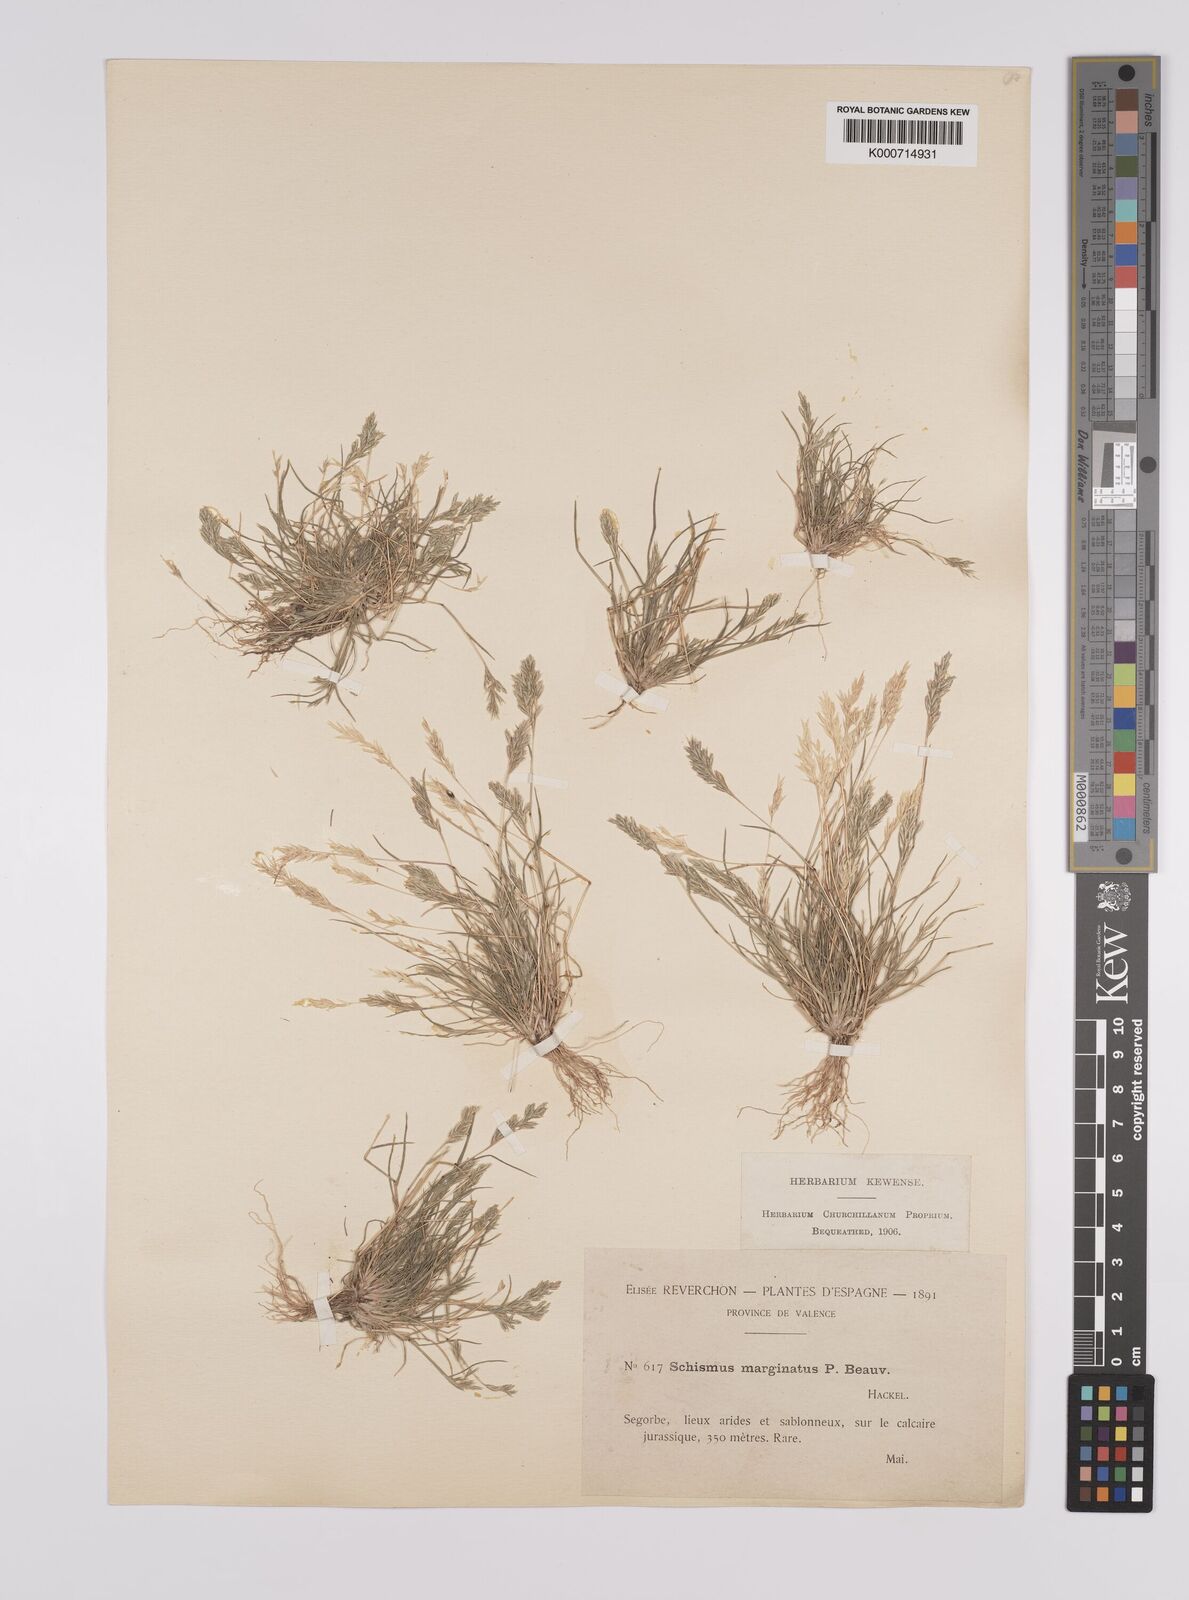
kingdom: Plantae
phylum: Tracheophyta
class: Liliopsida
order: Poales
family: Poaceae
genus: Schismus
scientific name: Schismus barbatus
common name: Kelch-grass
